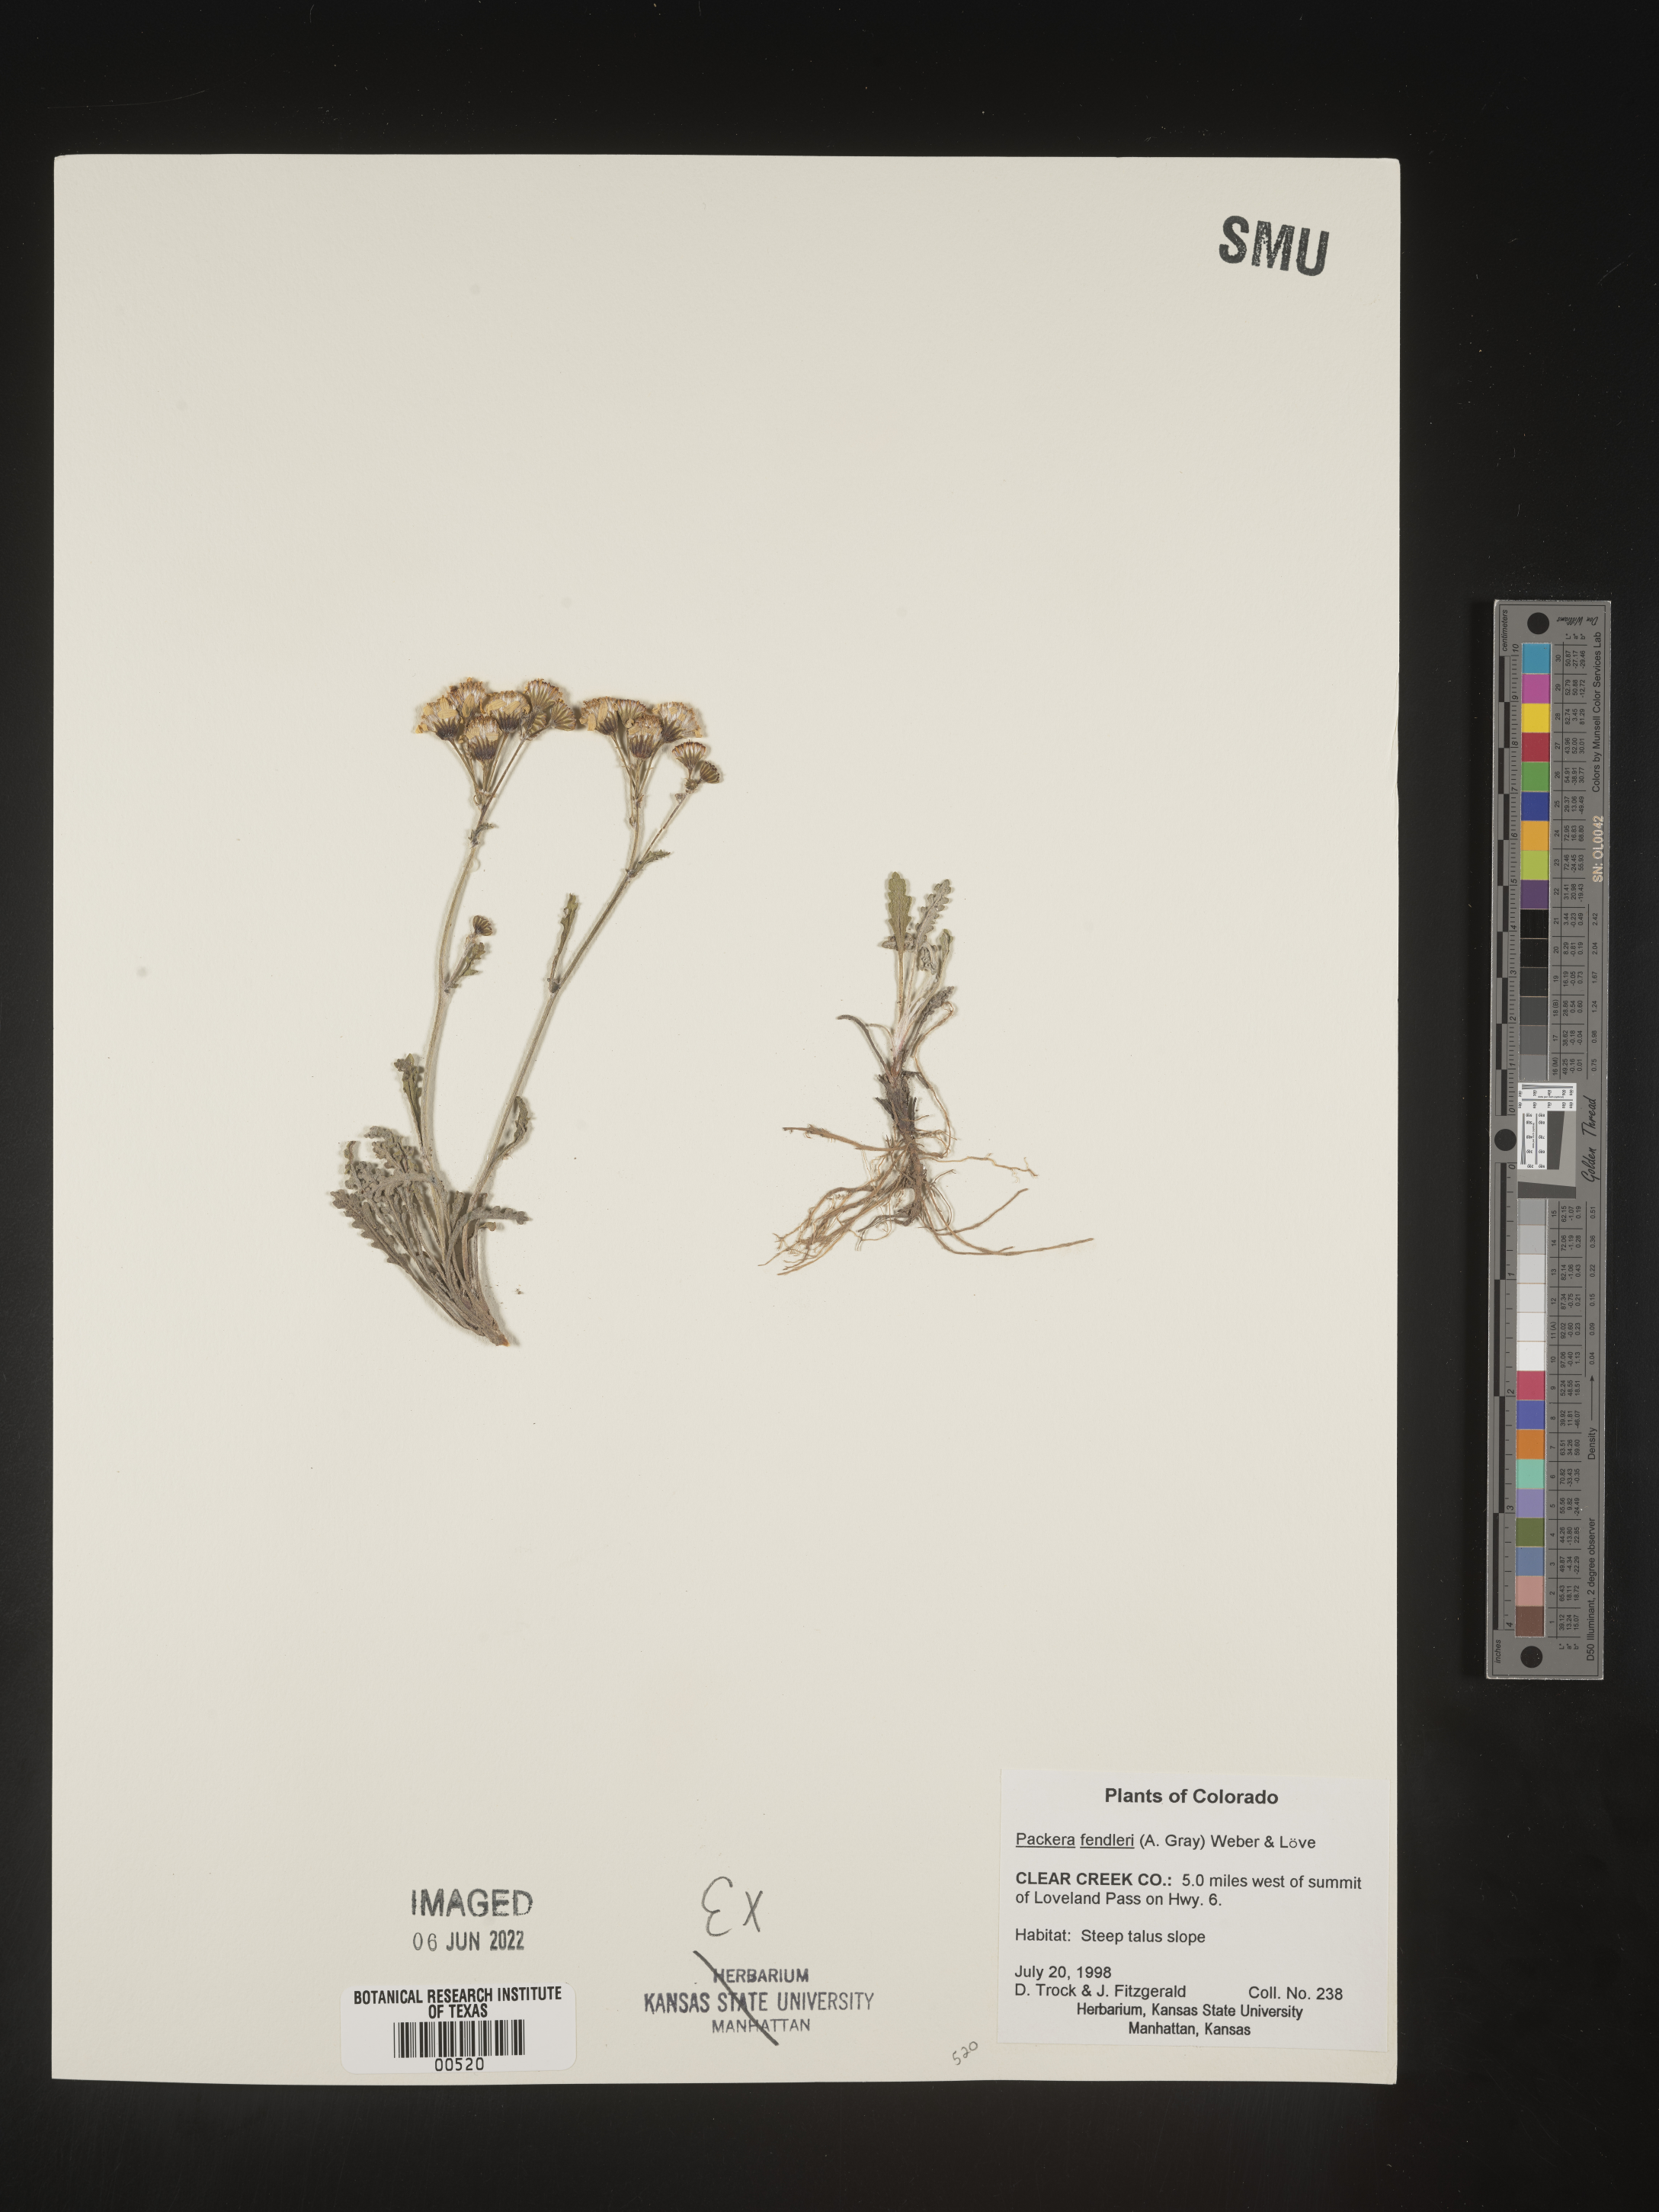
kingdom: Plantae
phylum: Tracheophyta
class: Magnoliopsida
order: Asterales
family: Asteraceae
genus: Packera
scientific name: Packera fendleri
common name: Notch-leaf butterweed
